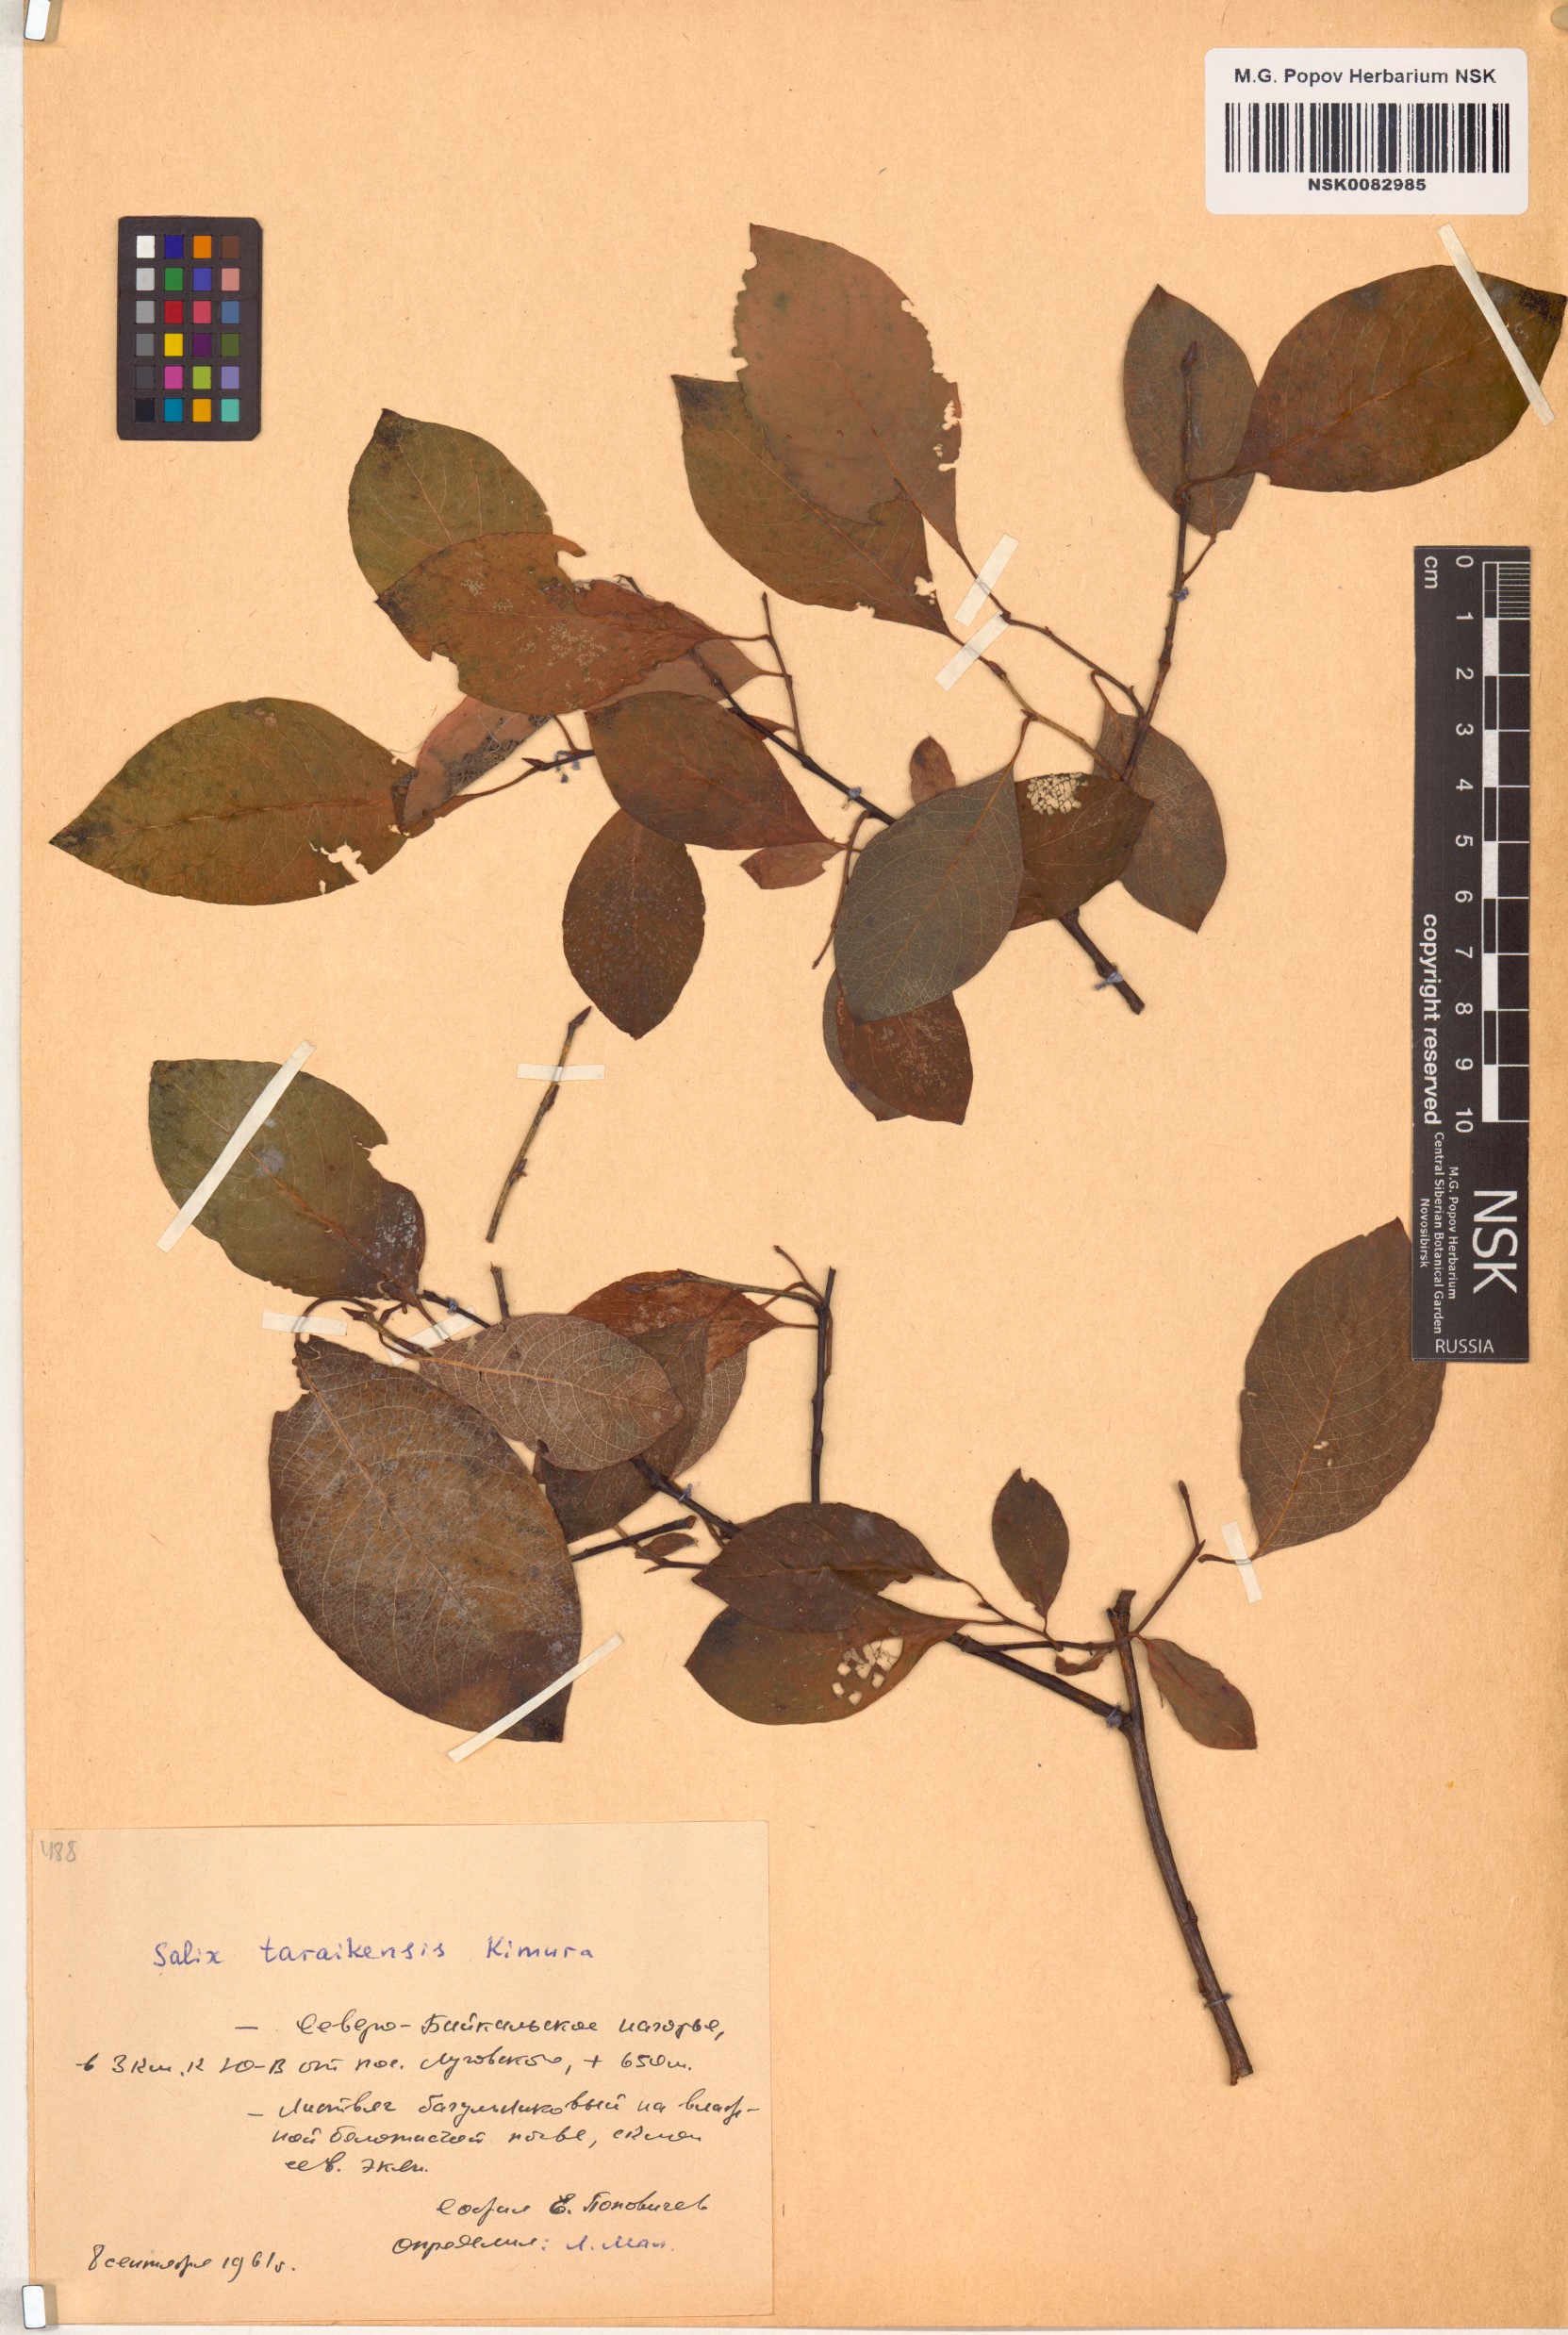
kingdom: Plantae
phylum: Tracheophyta
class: Magnoliopsida
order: Malpighiales
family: Salicaceae
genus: Salix
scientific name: Salix taraikensis
